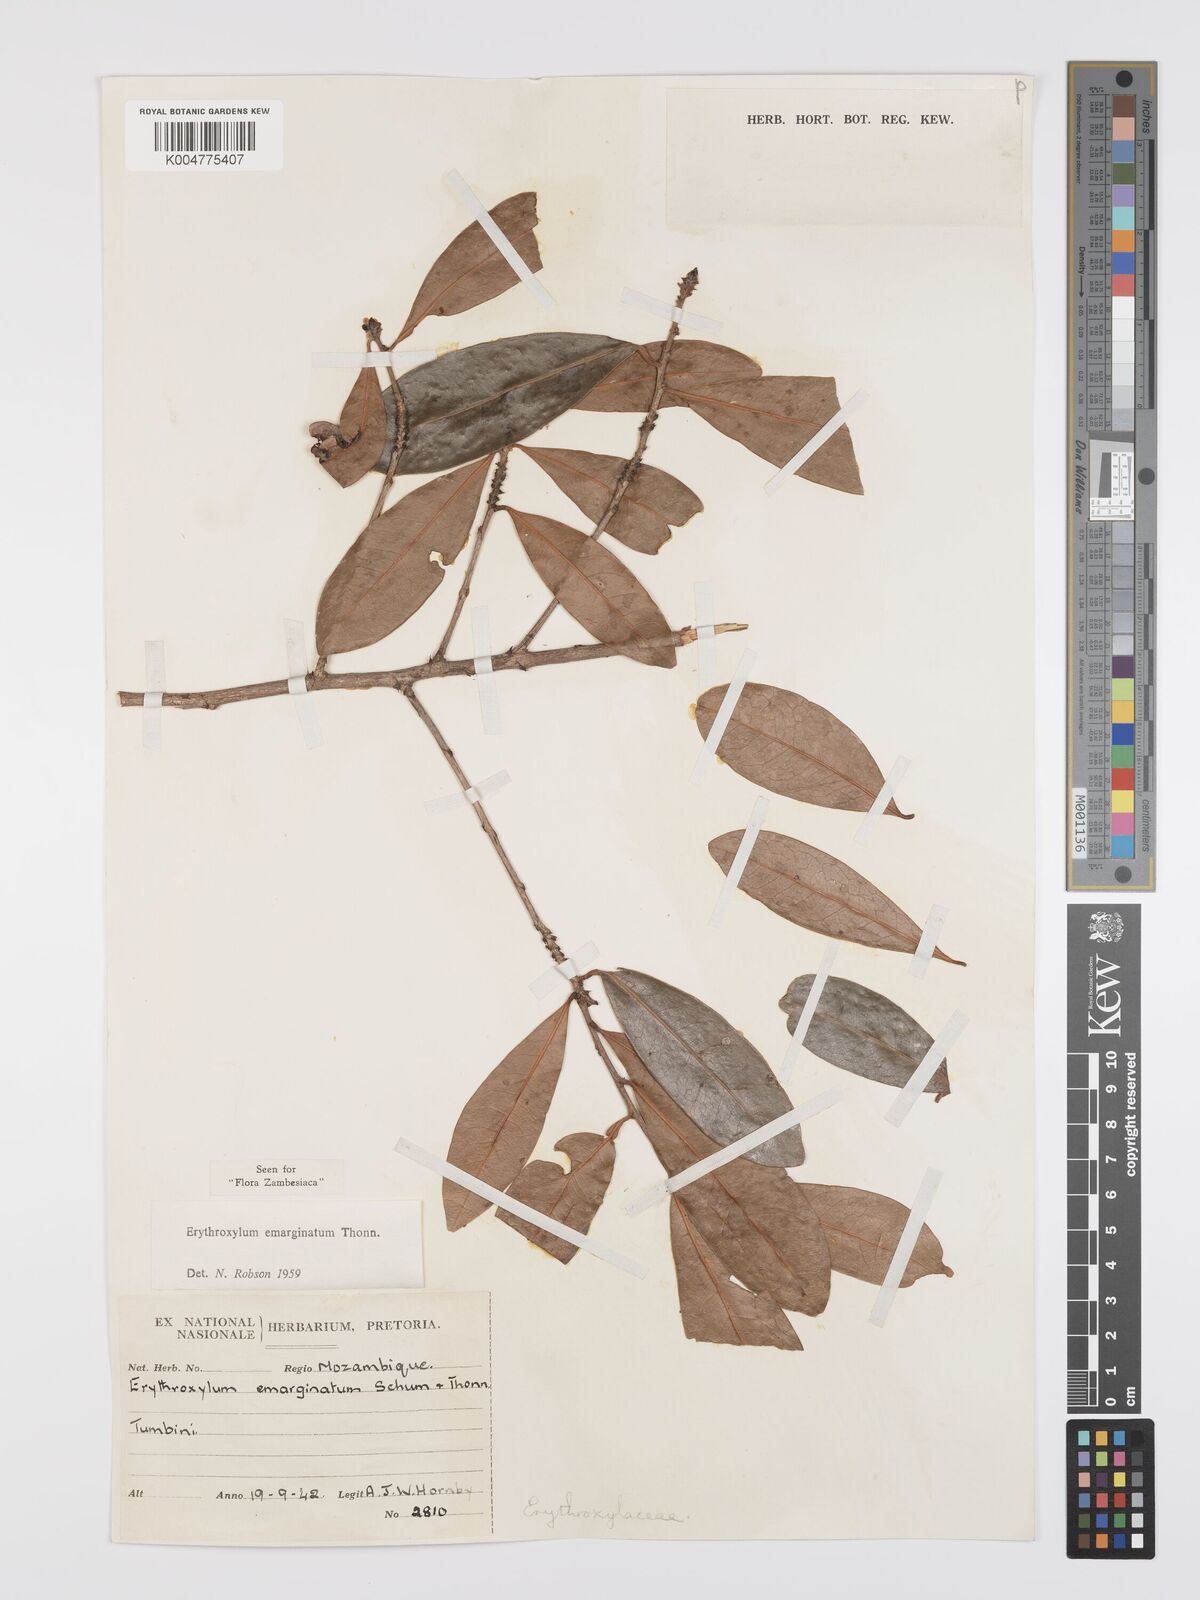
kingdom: Plantae
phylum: Tracheophyta
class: Magnoliopsida
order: Malpighiales
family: Erythroxylaceae
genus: Erythroxylum
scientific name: Erythroxylum emarginatum
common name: African coca-tree
